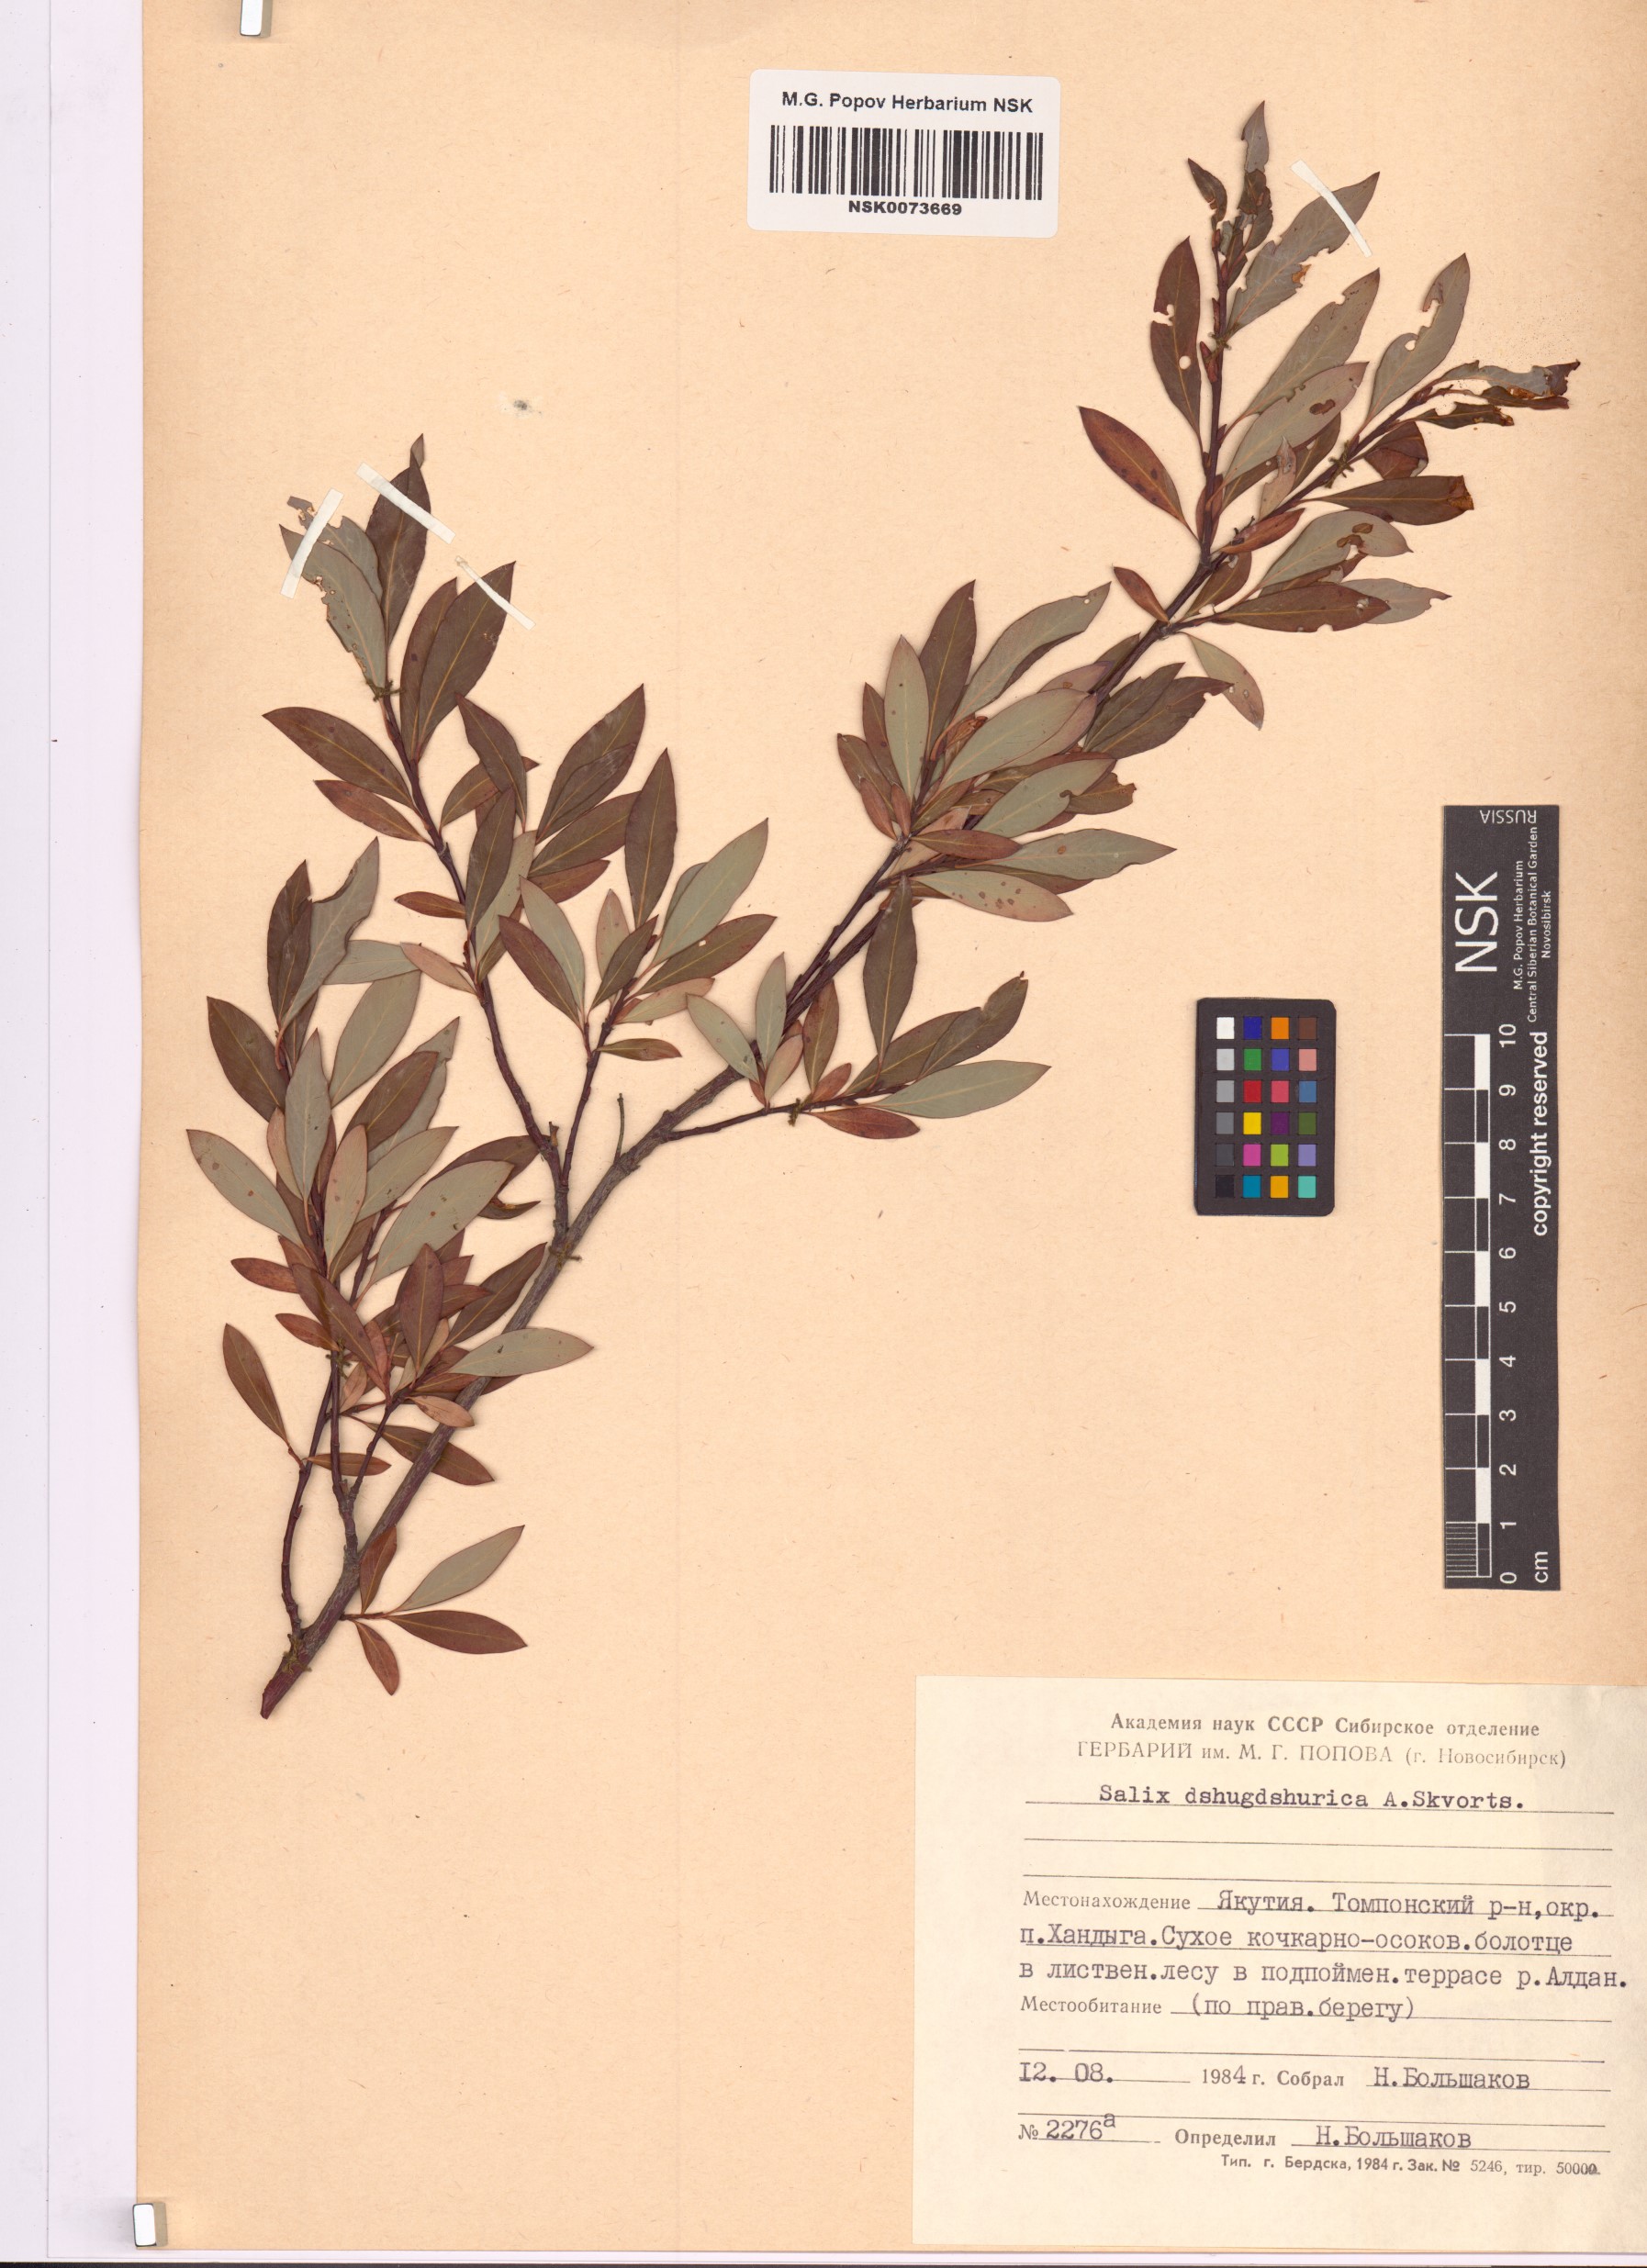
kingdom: Plantae
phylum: Tracheophyta
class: Magnoliopsida
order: Malpighiales
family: Salicaceae
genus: Salix
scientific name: Salix dshugdshurica
